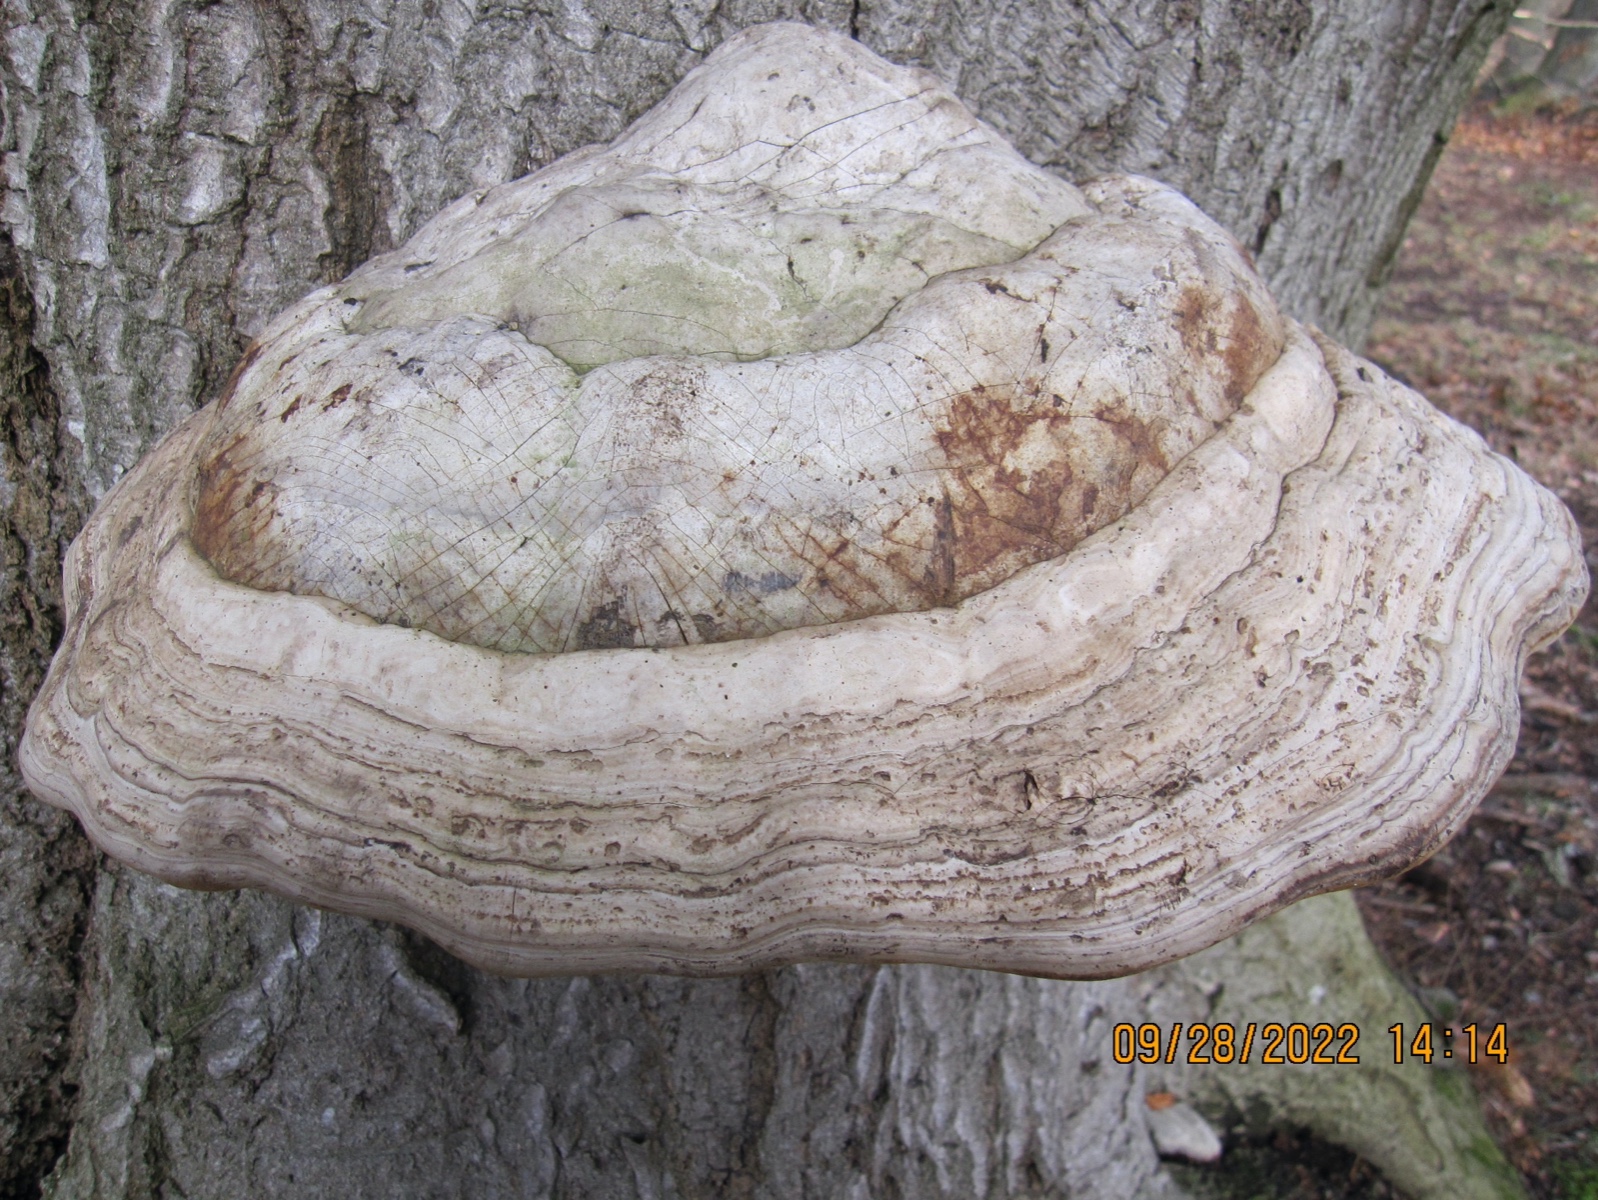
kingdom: Fungi
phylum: Basidiomycota
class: Agaricomycetes
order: Polyporales
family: Polyporaceae
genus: Fomes
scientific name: Fomes fomentarius
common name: tøndersvamp
